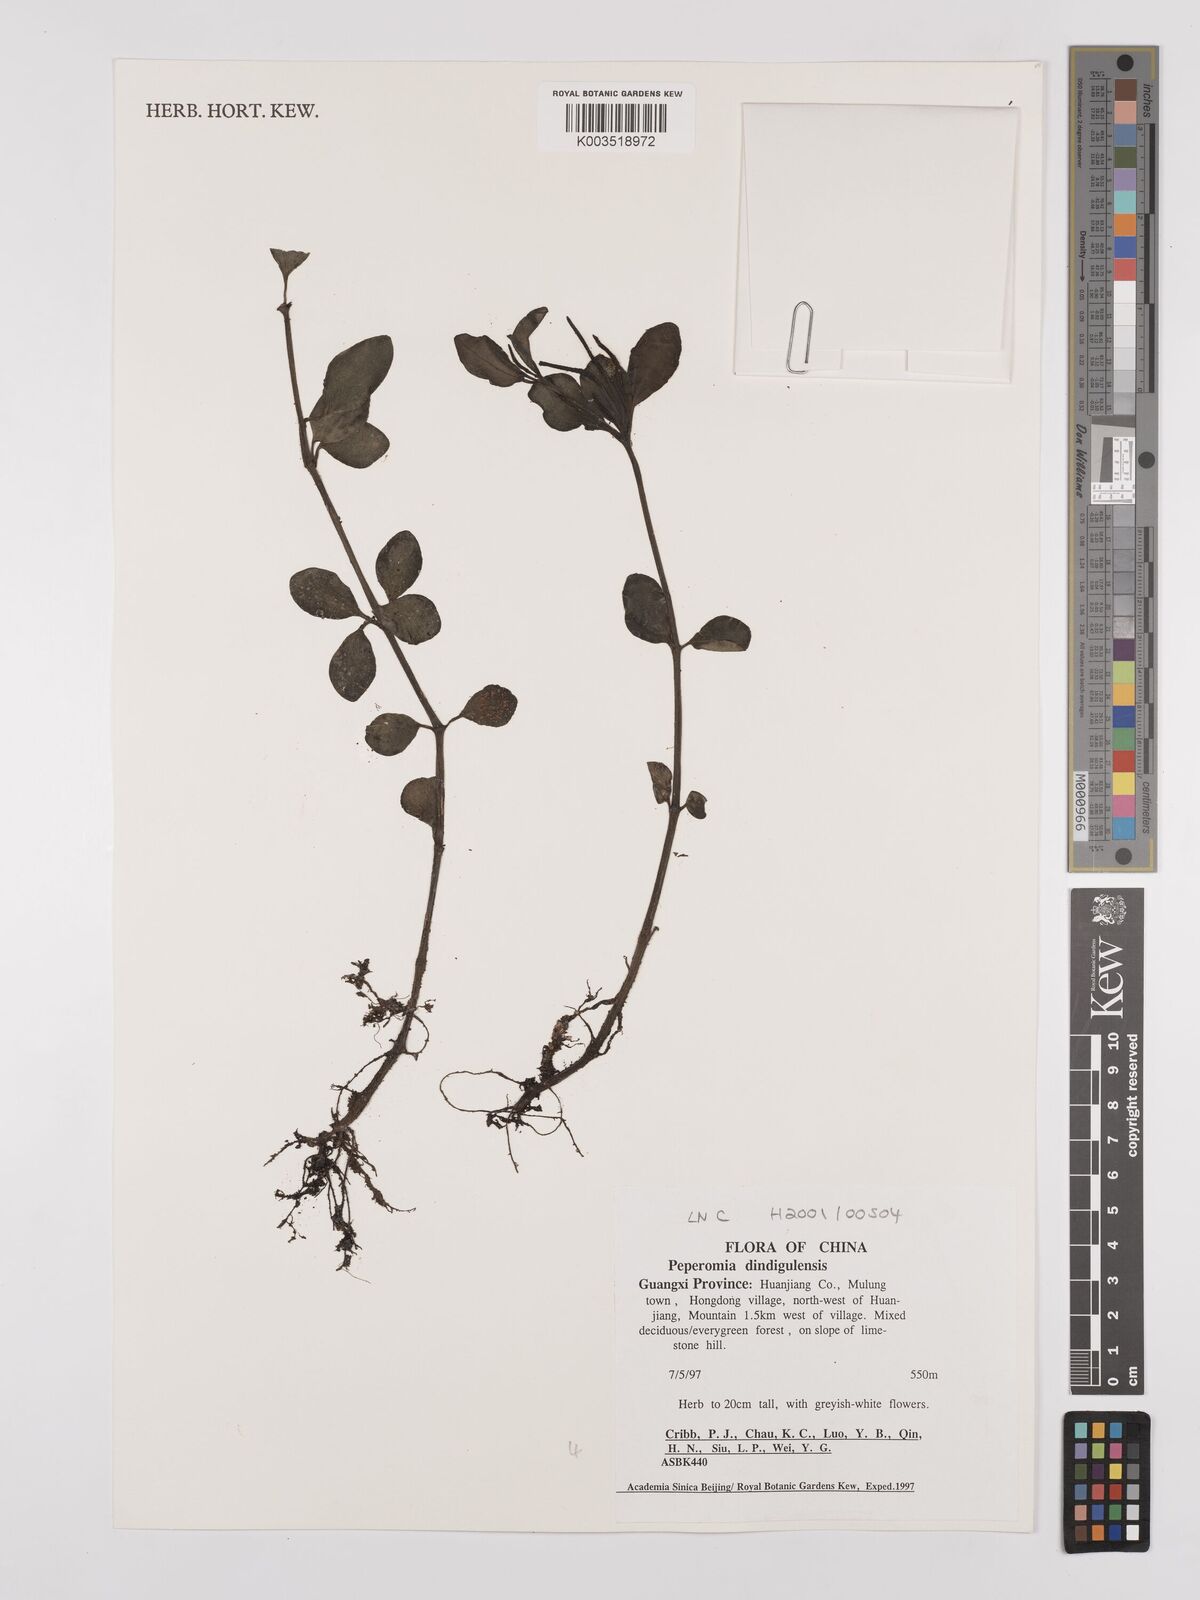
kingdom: Plantae
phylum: Tracheophyta
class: Magnoliopsida
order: Piperales
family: Piperaceae
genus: Peperomia
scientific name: Peperomia leptostachya
